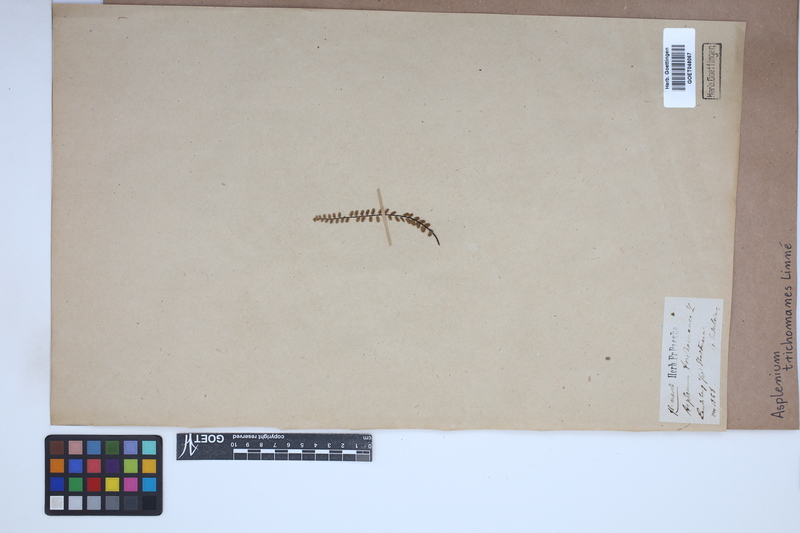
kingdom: Plantae
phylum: Tracheophyta
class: Polypodiopsida
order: Polypodiales
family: Aspleniaceae
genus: Asplenium
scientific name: Asplenium trichomanes
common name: Maidenhair spleenwort
